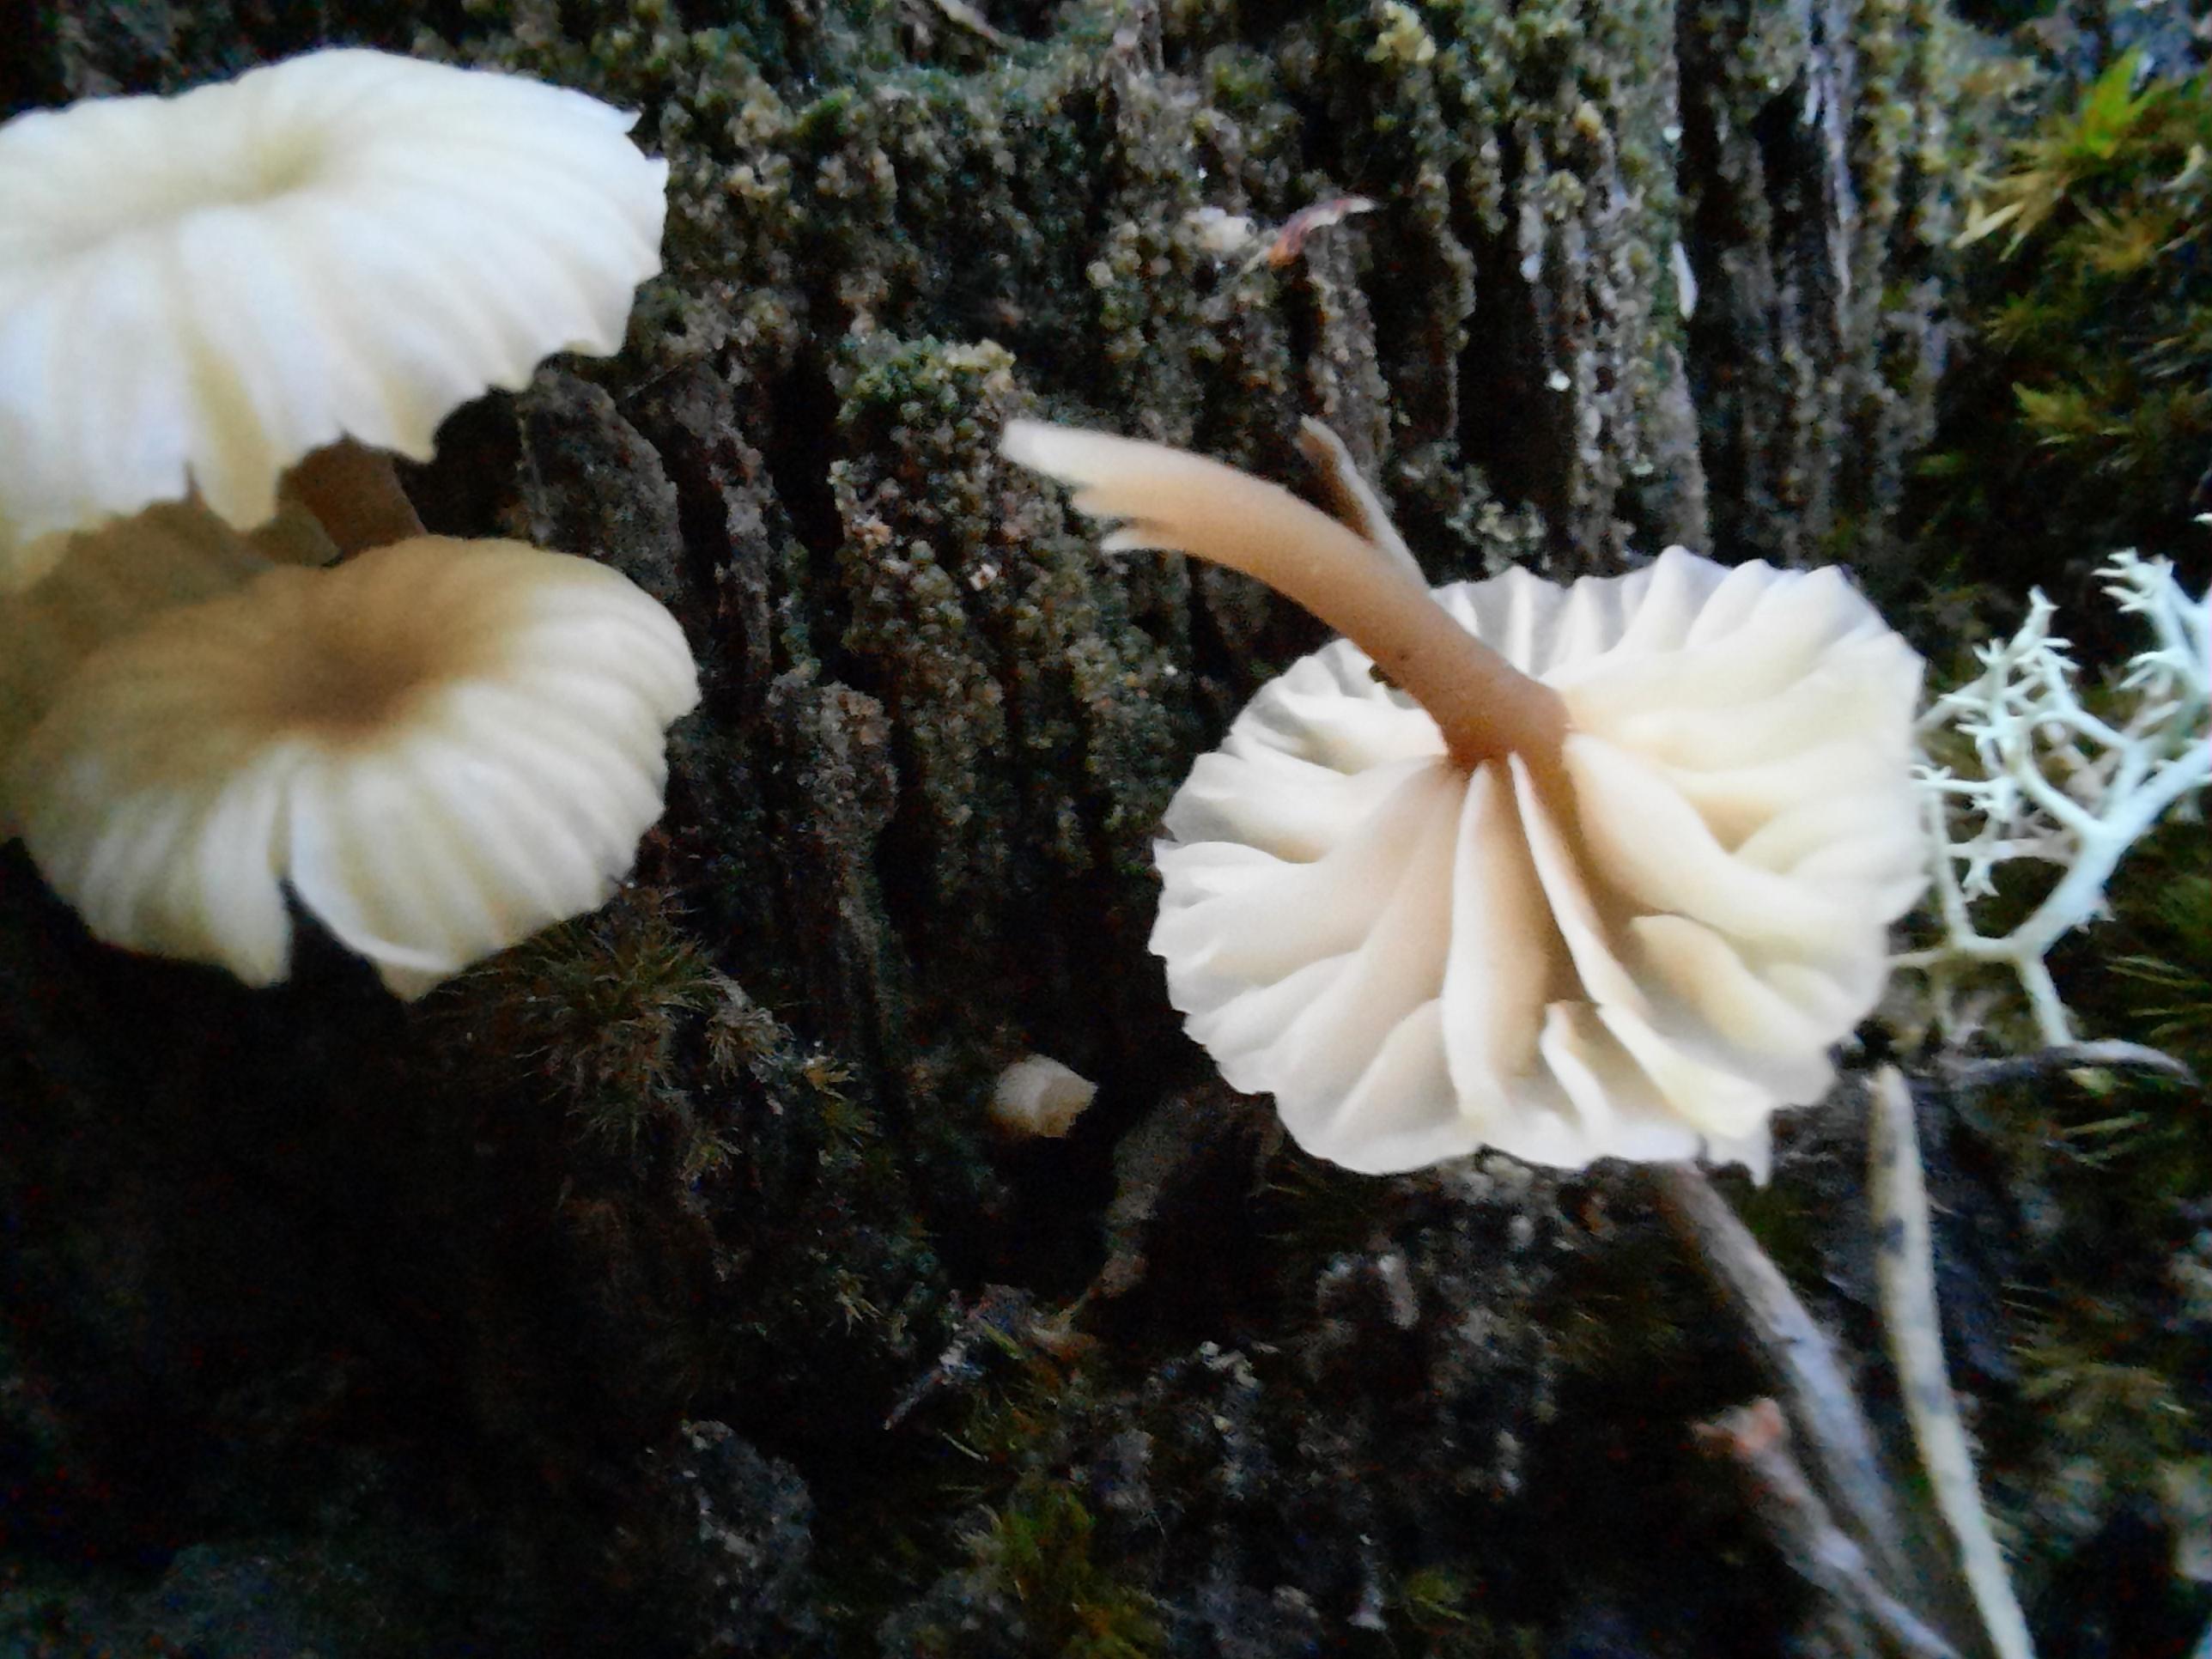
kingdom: Fungi
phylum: Basidiomycota
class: Agaricomycetes
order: Agaricales
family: Hygrophoraceae
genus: Lichenomphalia
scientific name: Lichenomphalia umbellifera
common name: tørve-lavhat
